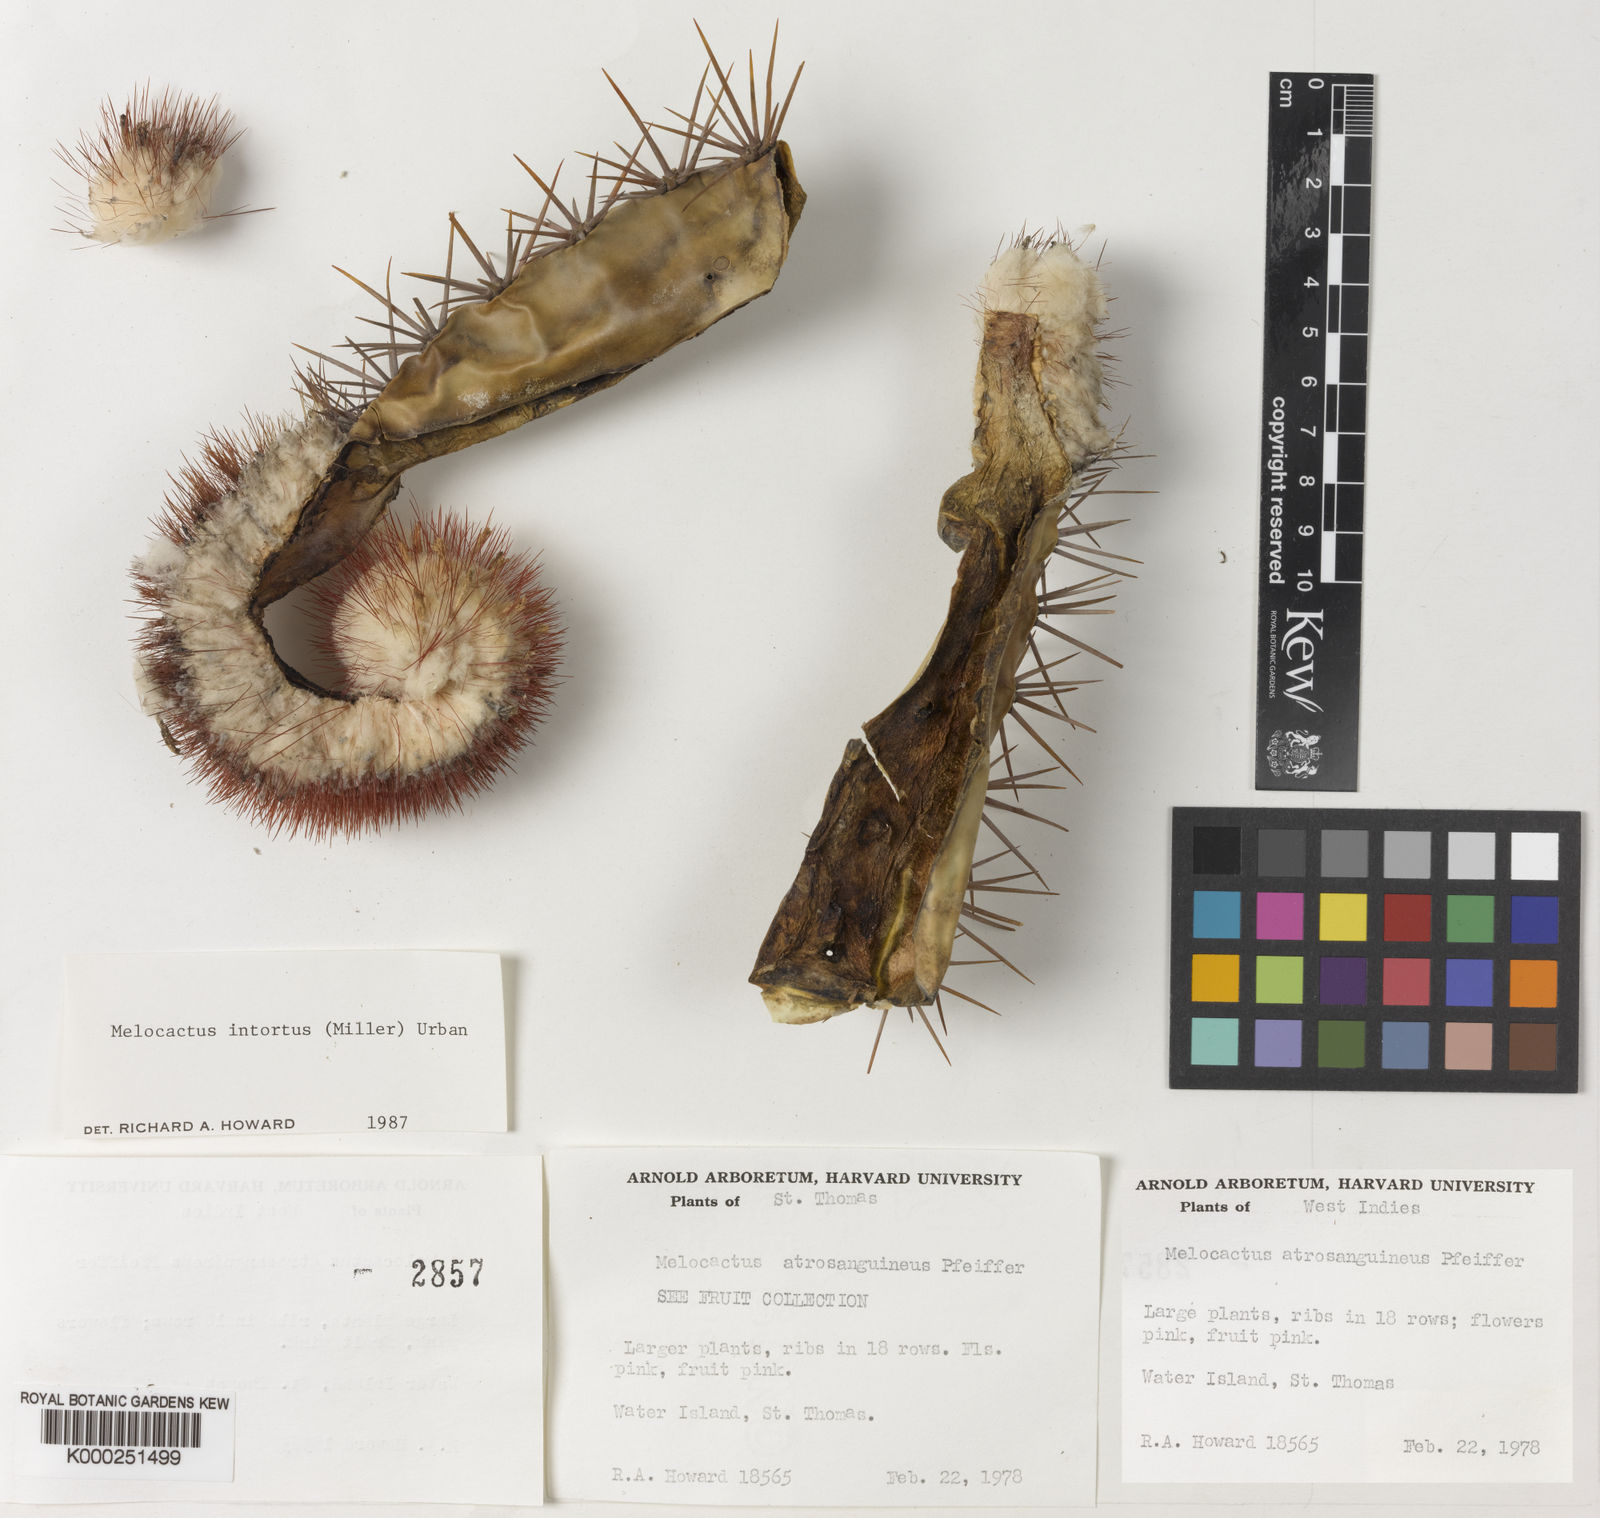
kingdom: Plantae
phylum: Tracheophyta
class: Magnoliopsida
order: Caryophyllales
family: Cactaceae
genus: Melocactus
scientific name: Melocactus
